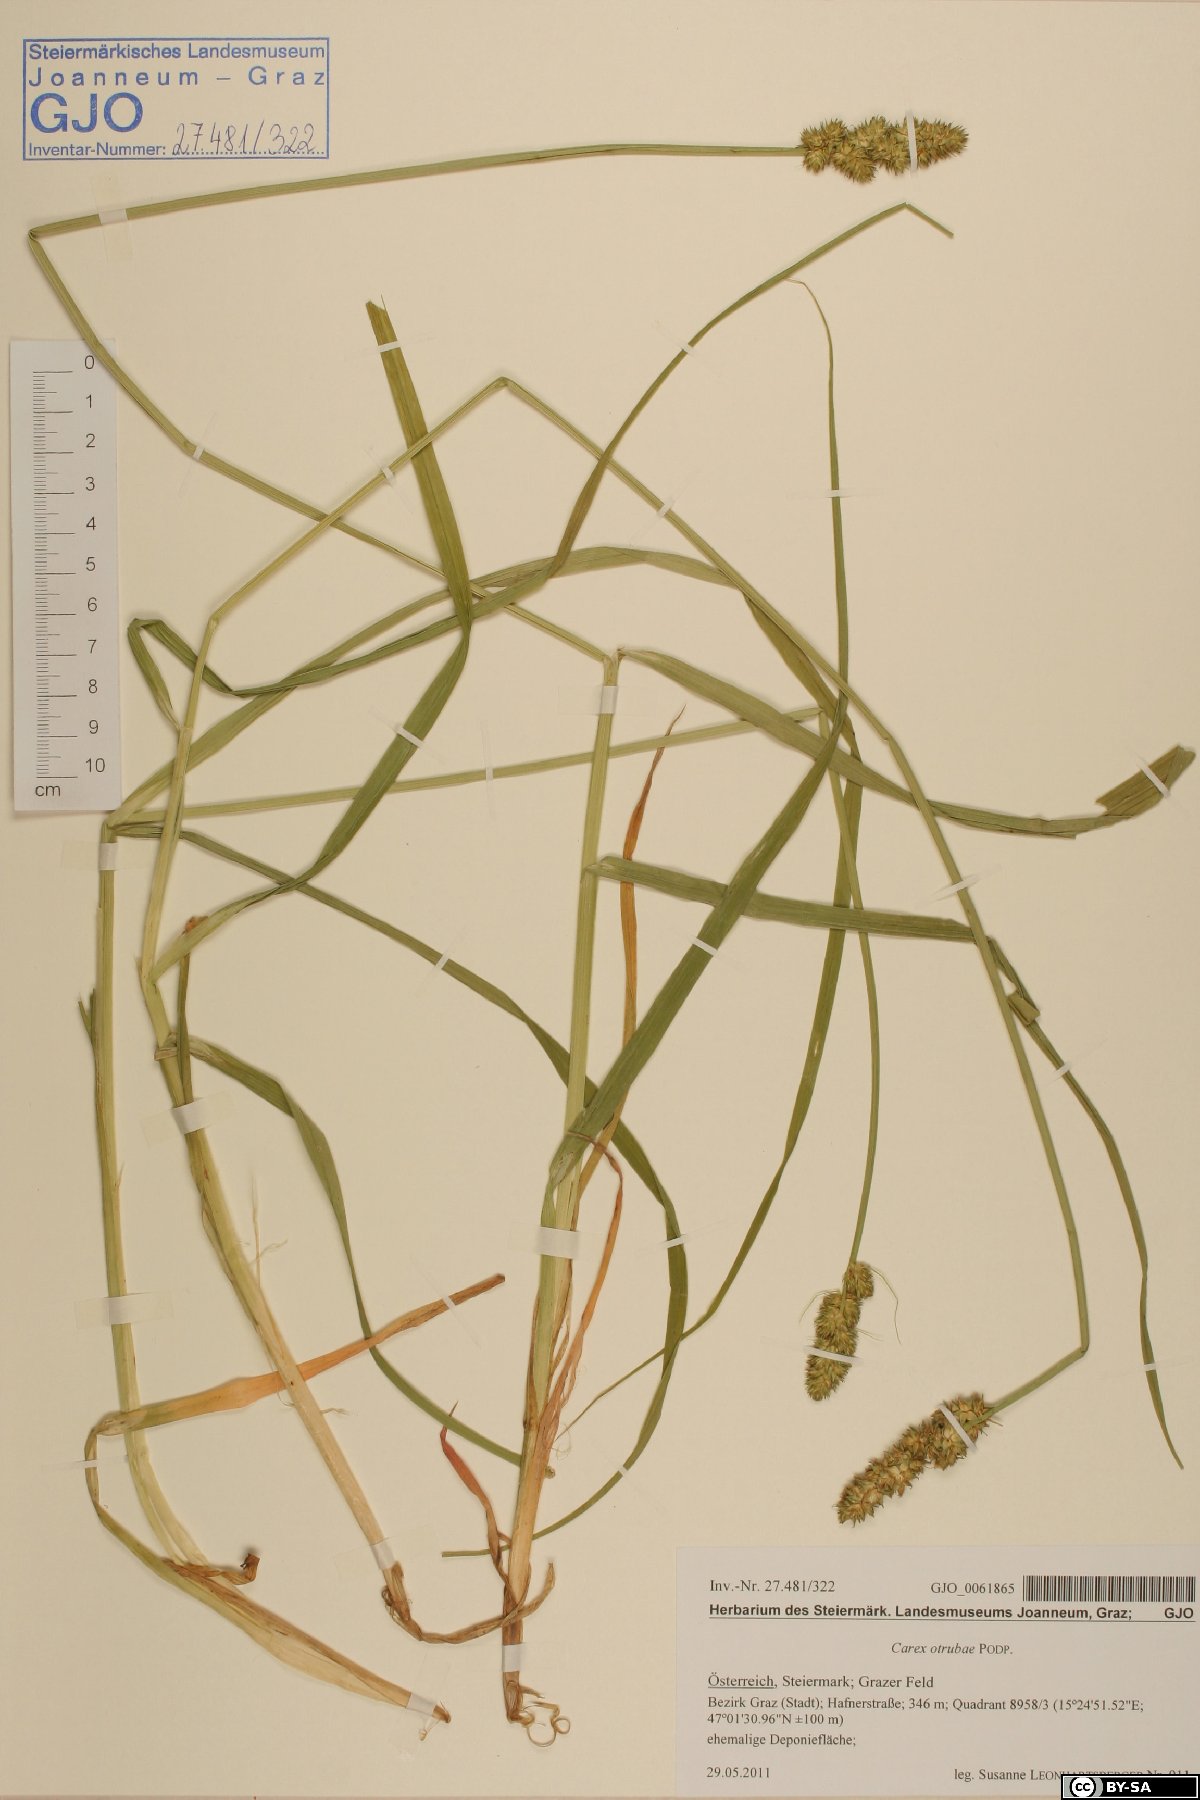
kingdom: Plantae
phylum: Tracheophyta
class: Liliopsida
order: Poales
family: Cyperaceae
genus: Carex
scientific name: Carex otrubae
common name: False fox-sedge
